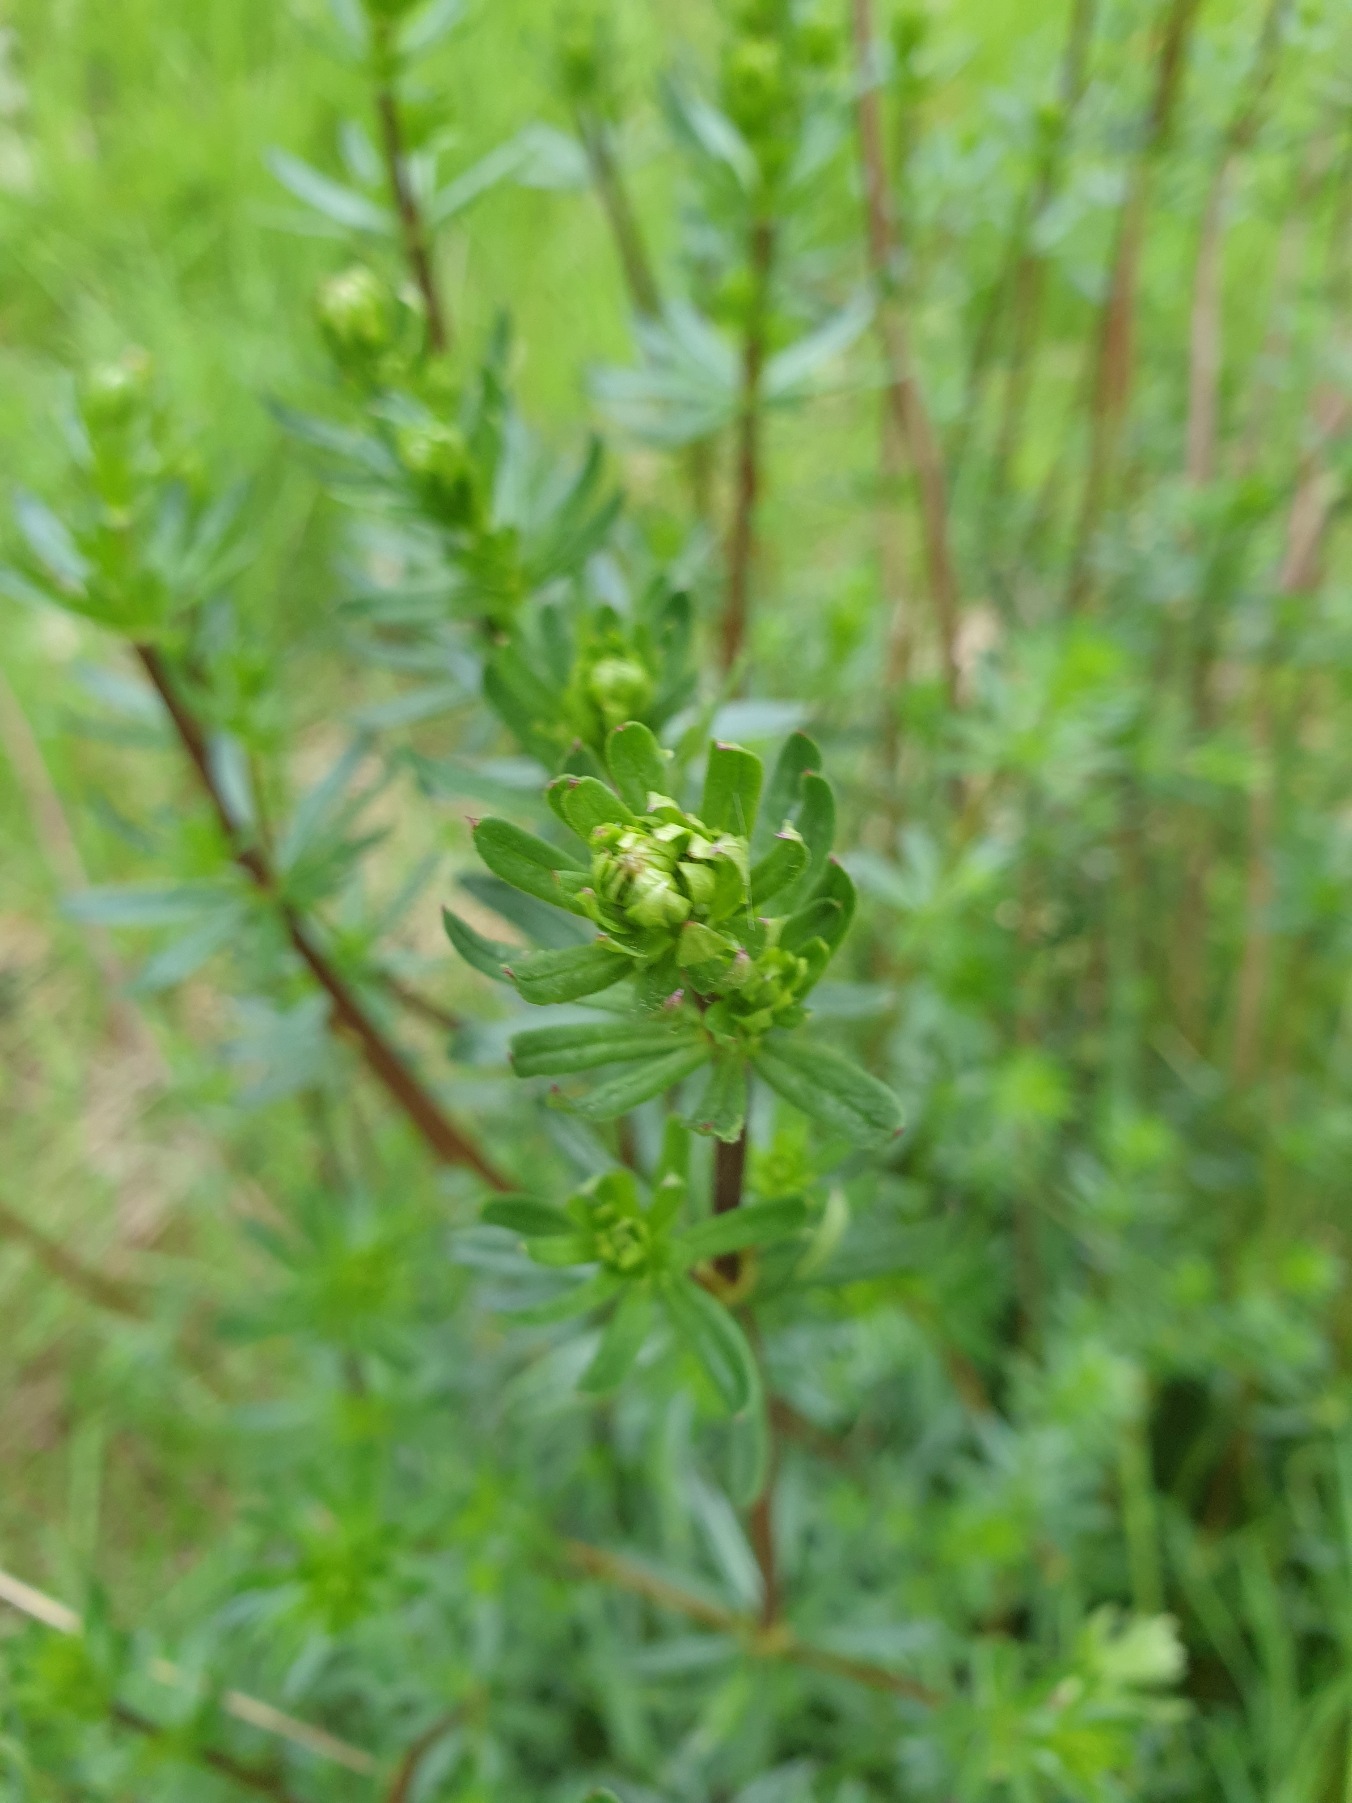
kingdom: Plantae
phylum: Tracheophyta
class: Magnoliopsida
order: Gentianales
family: Rubiaceae
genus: Galium
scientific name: Galium mollugo
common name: Hvid snerre
